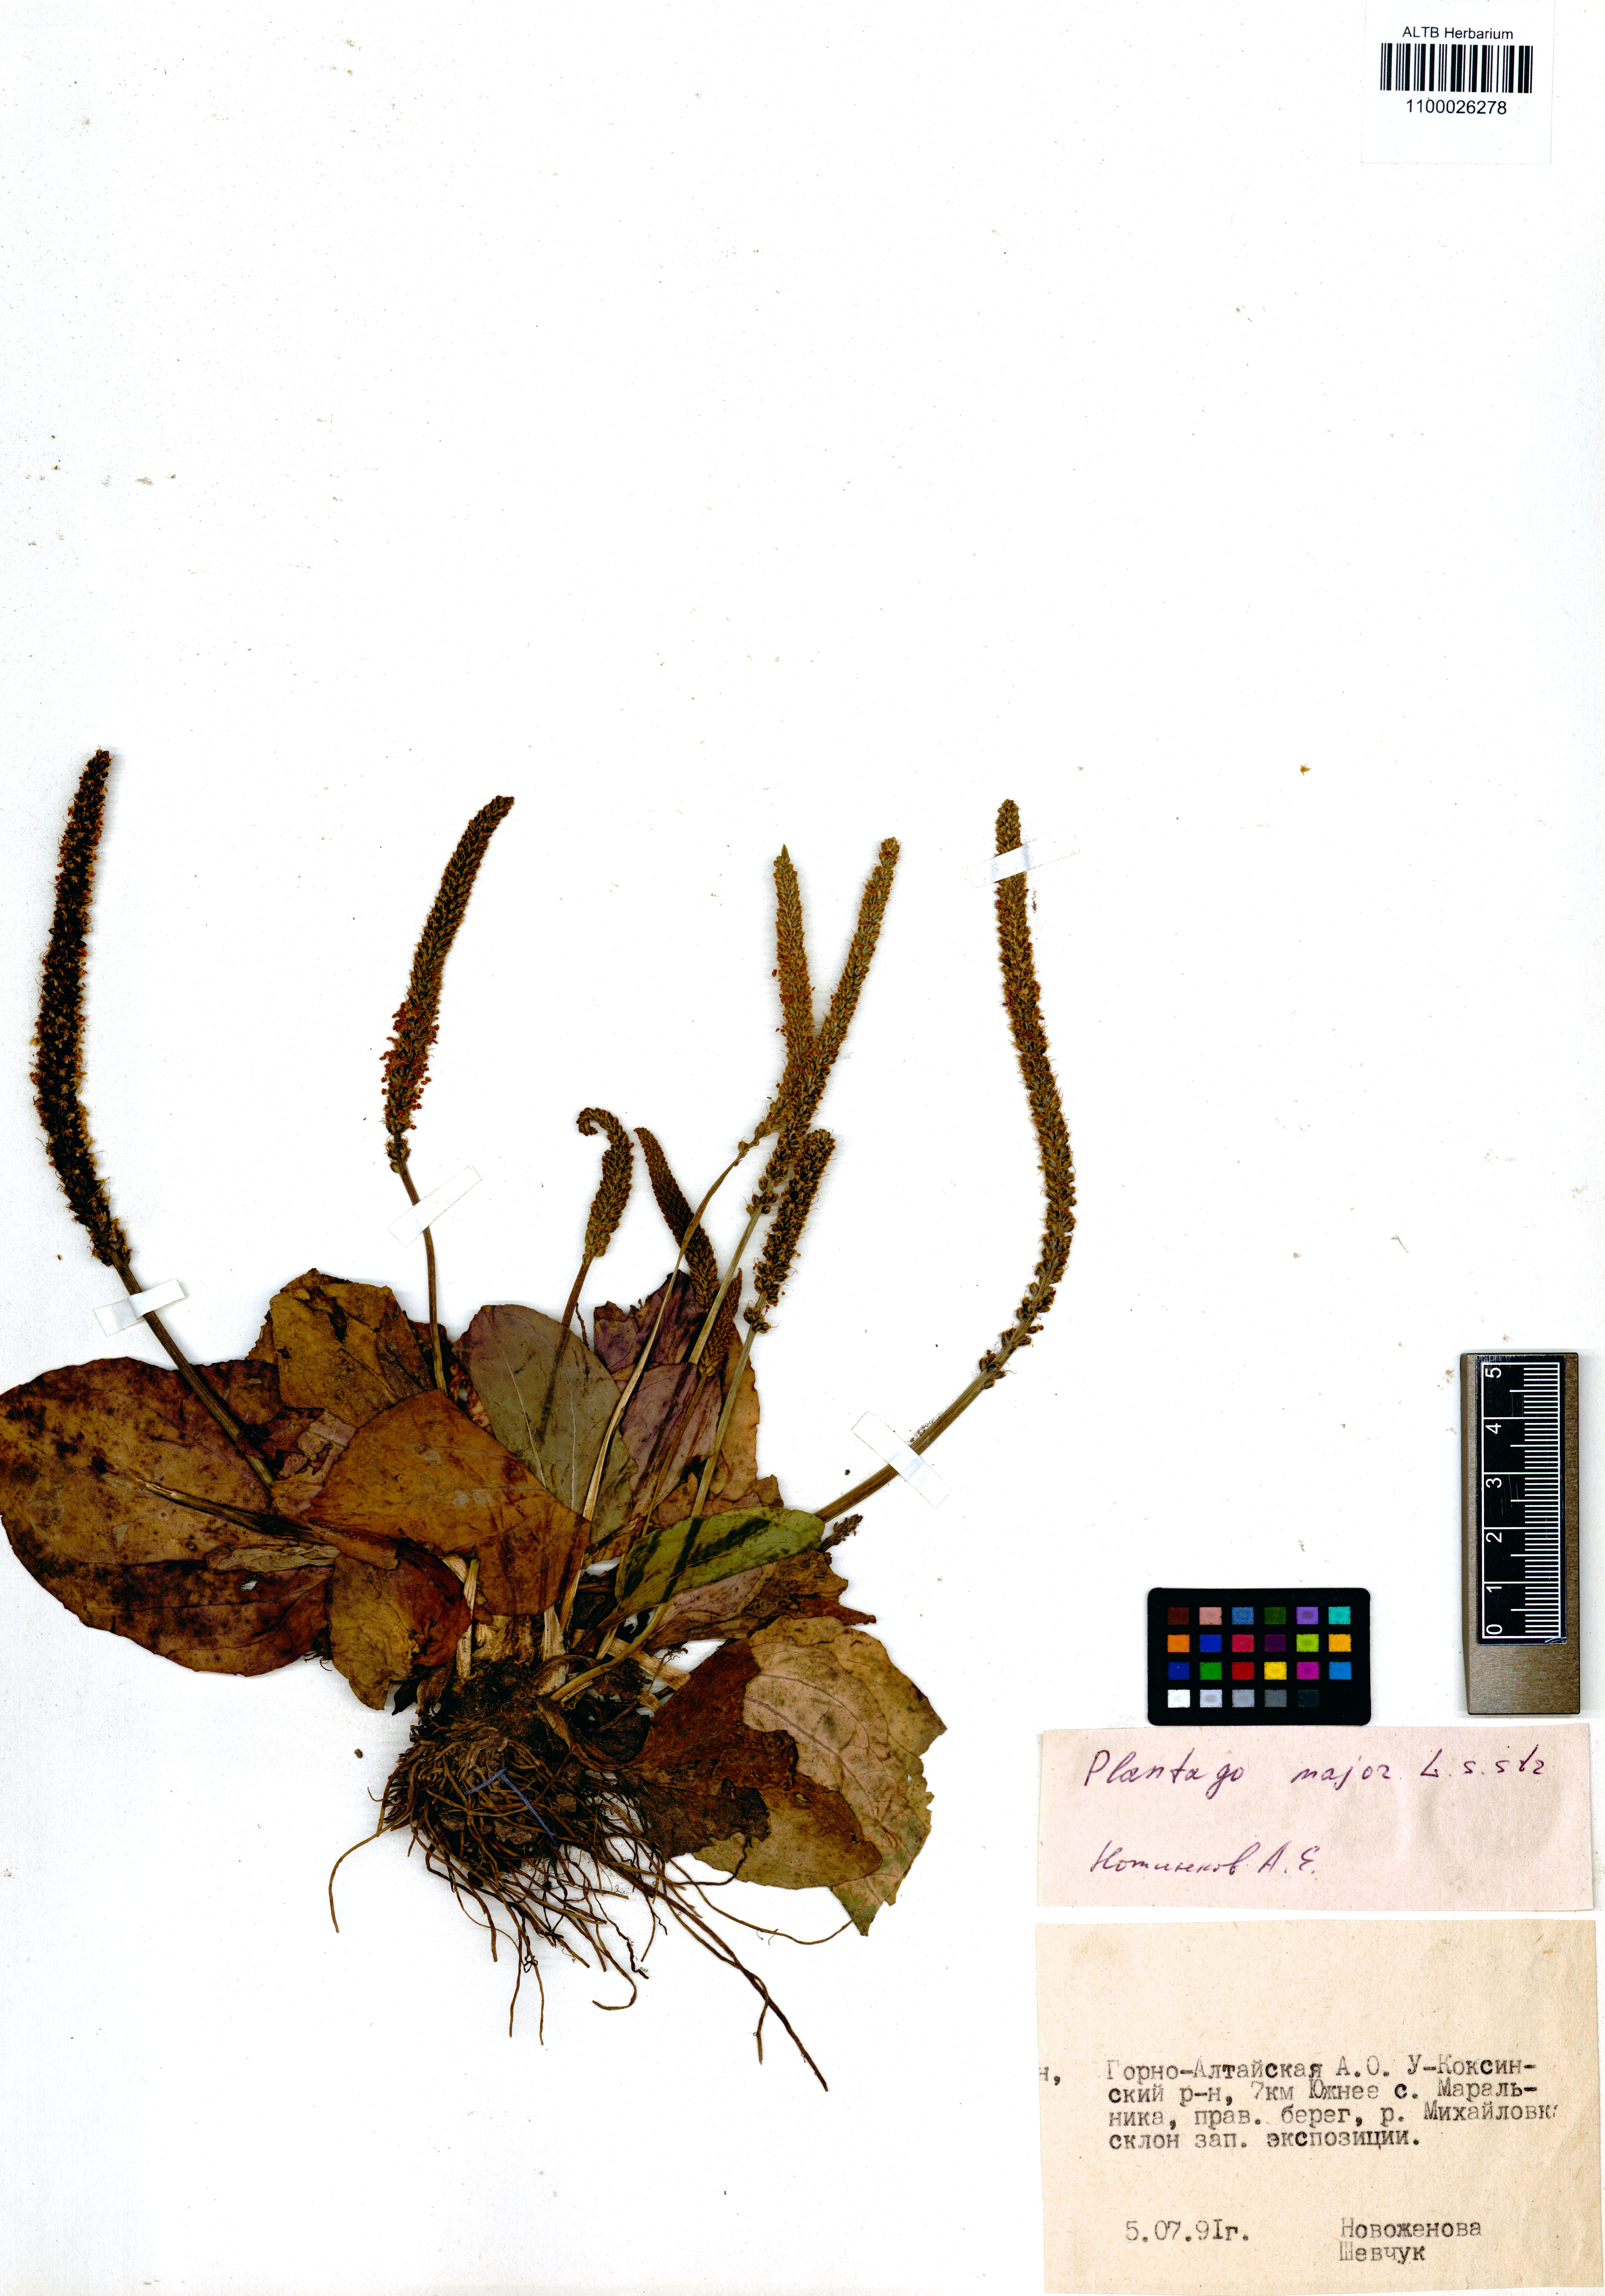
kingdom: Plantae
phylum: Tracheophyta
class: Magnoliopsida
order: Lamiales
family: Plantaginaceae
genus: Plantago
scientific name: Plantago major
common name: Common plantain
